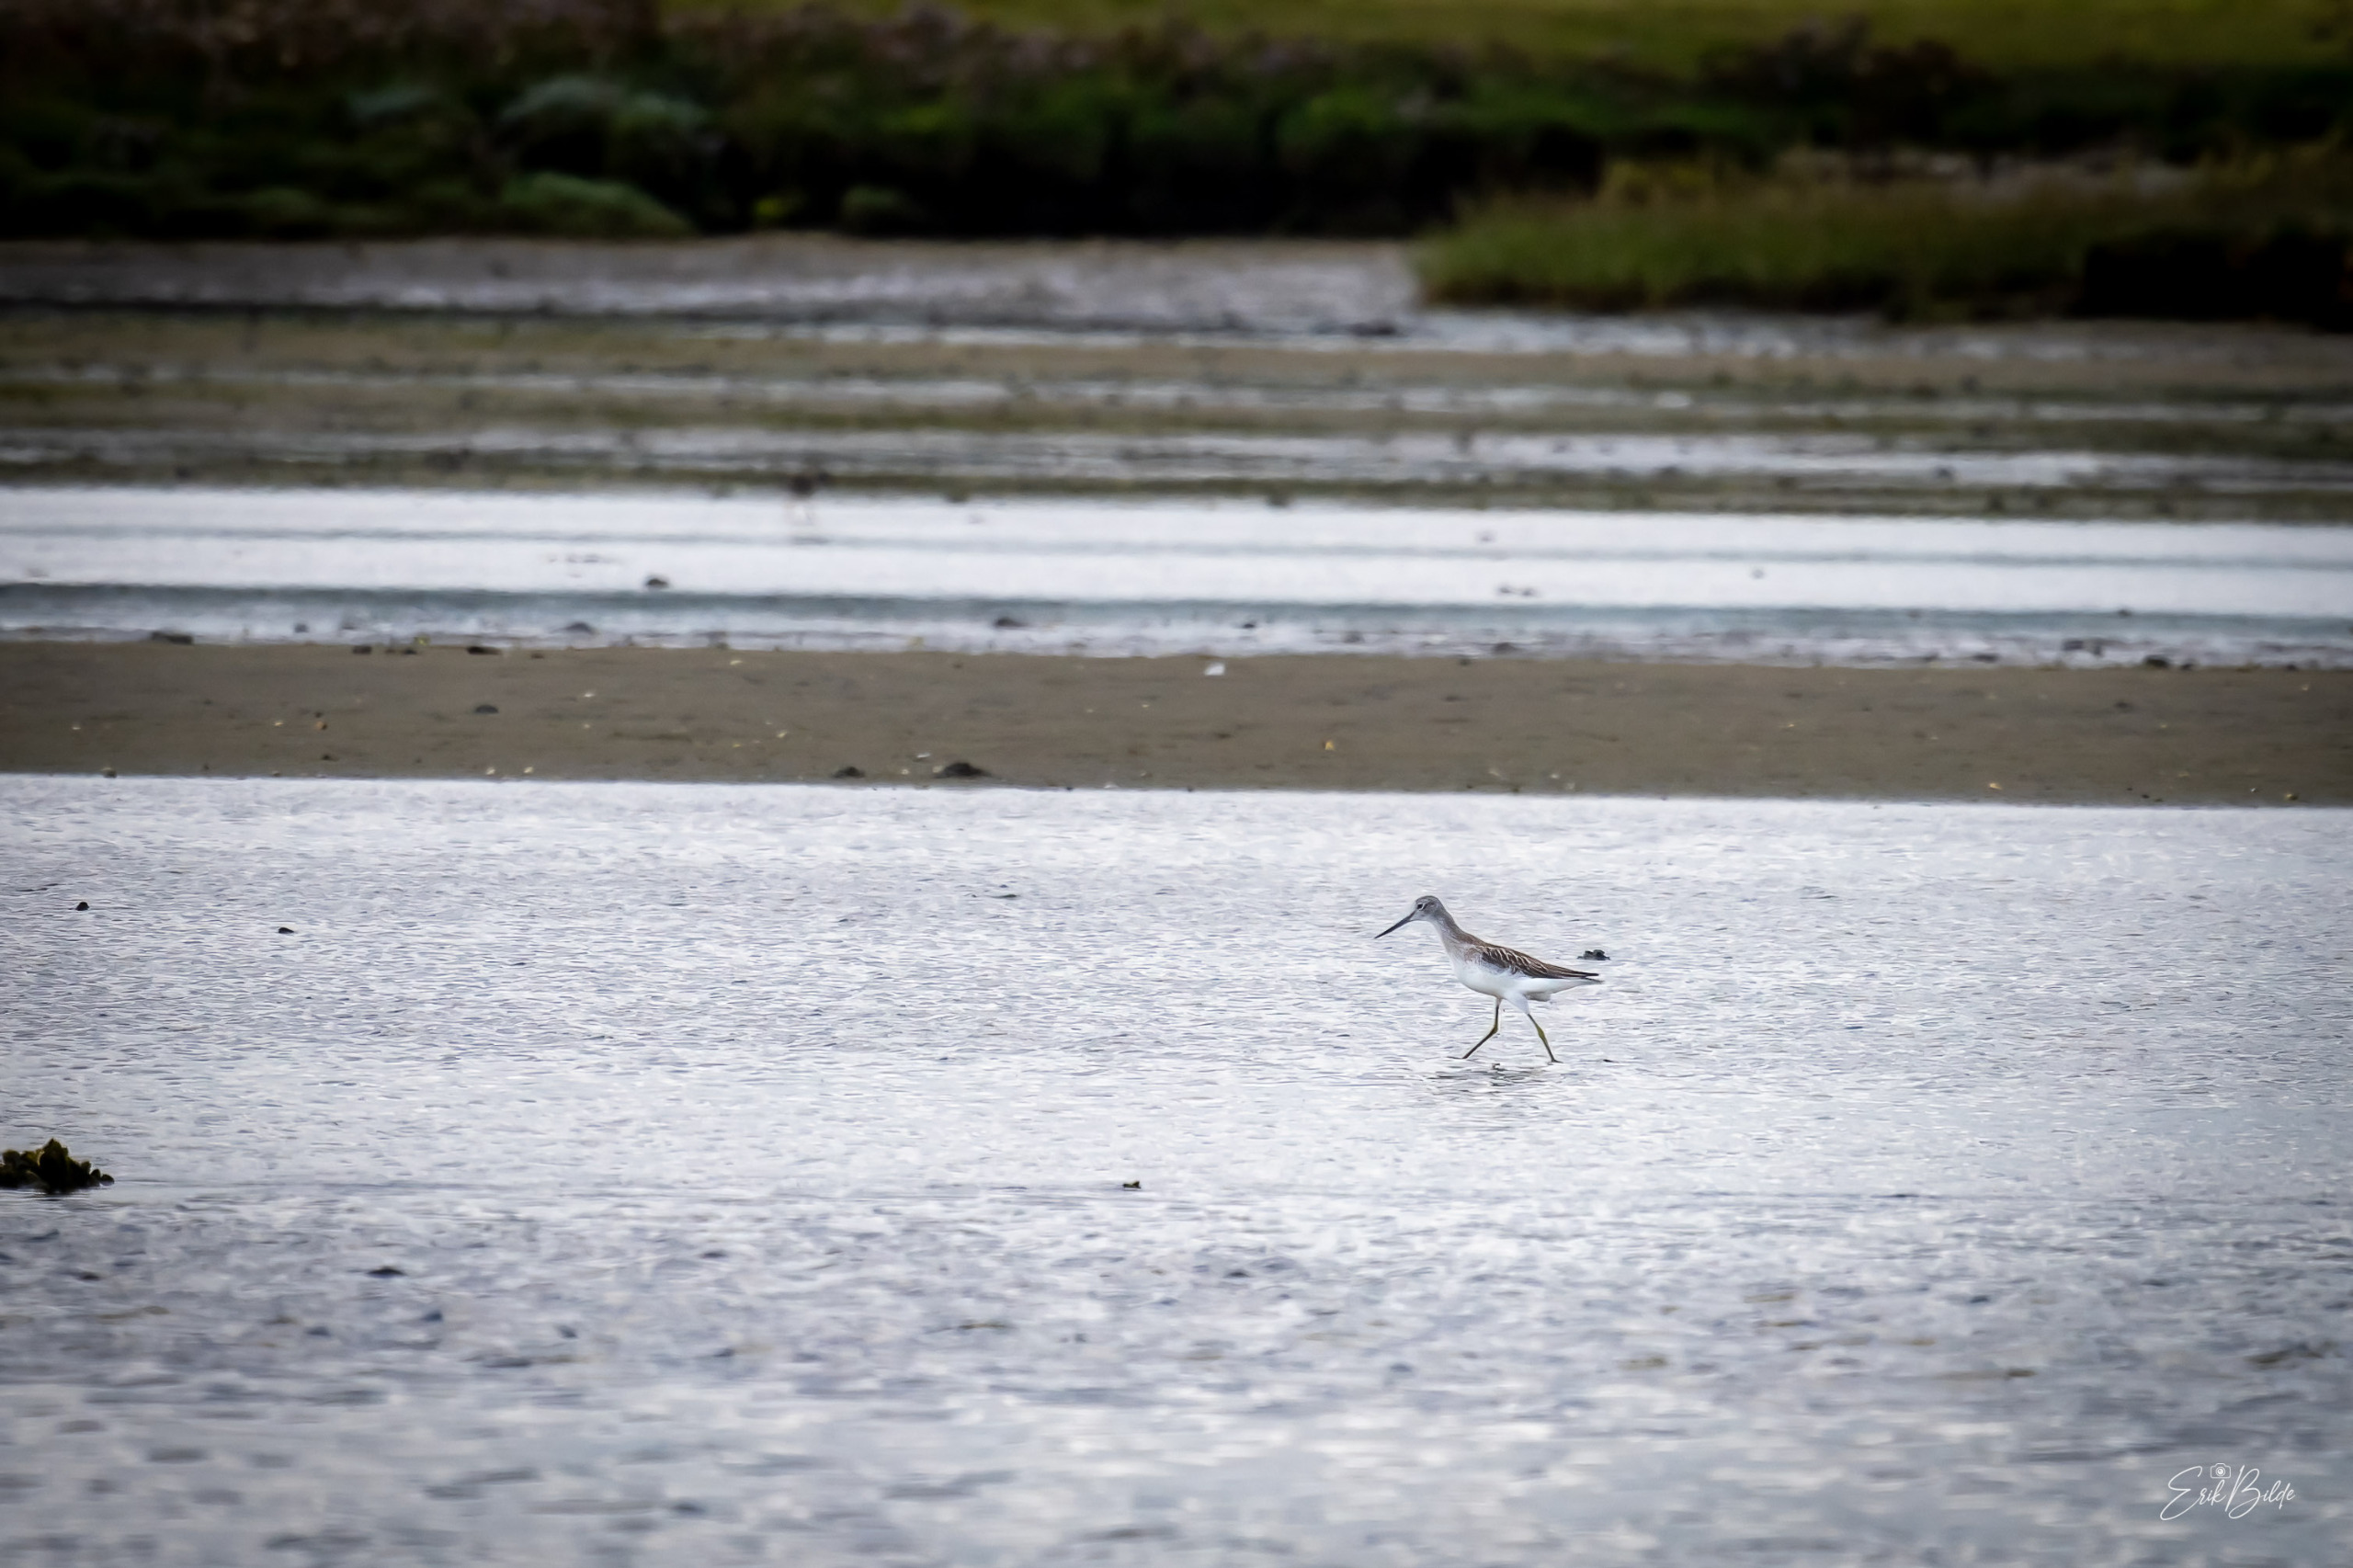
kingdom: Animalia
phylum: Chordata
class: Aves
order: Charadriiformes
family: Scolopacidae
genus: Tringa
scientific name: Tringa nebularia
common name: Hvidklire
